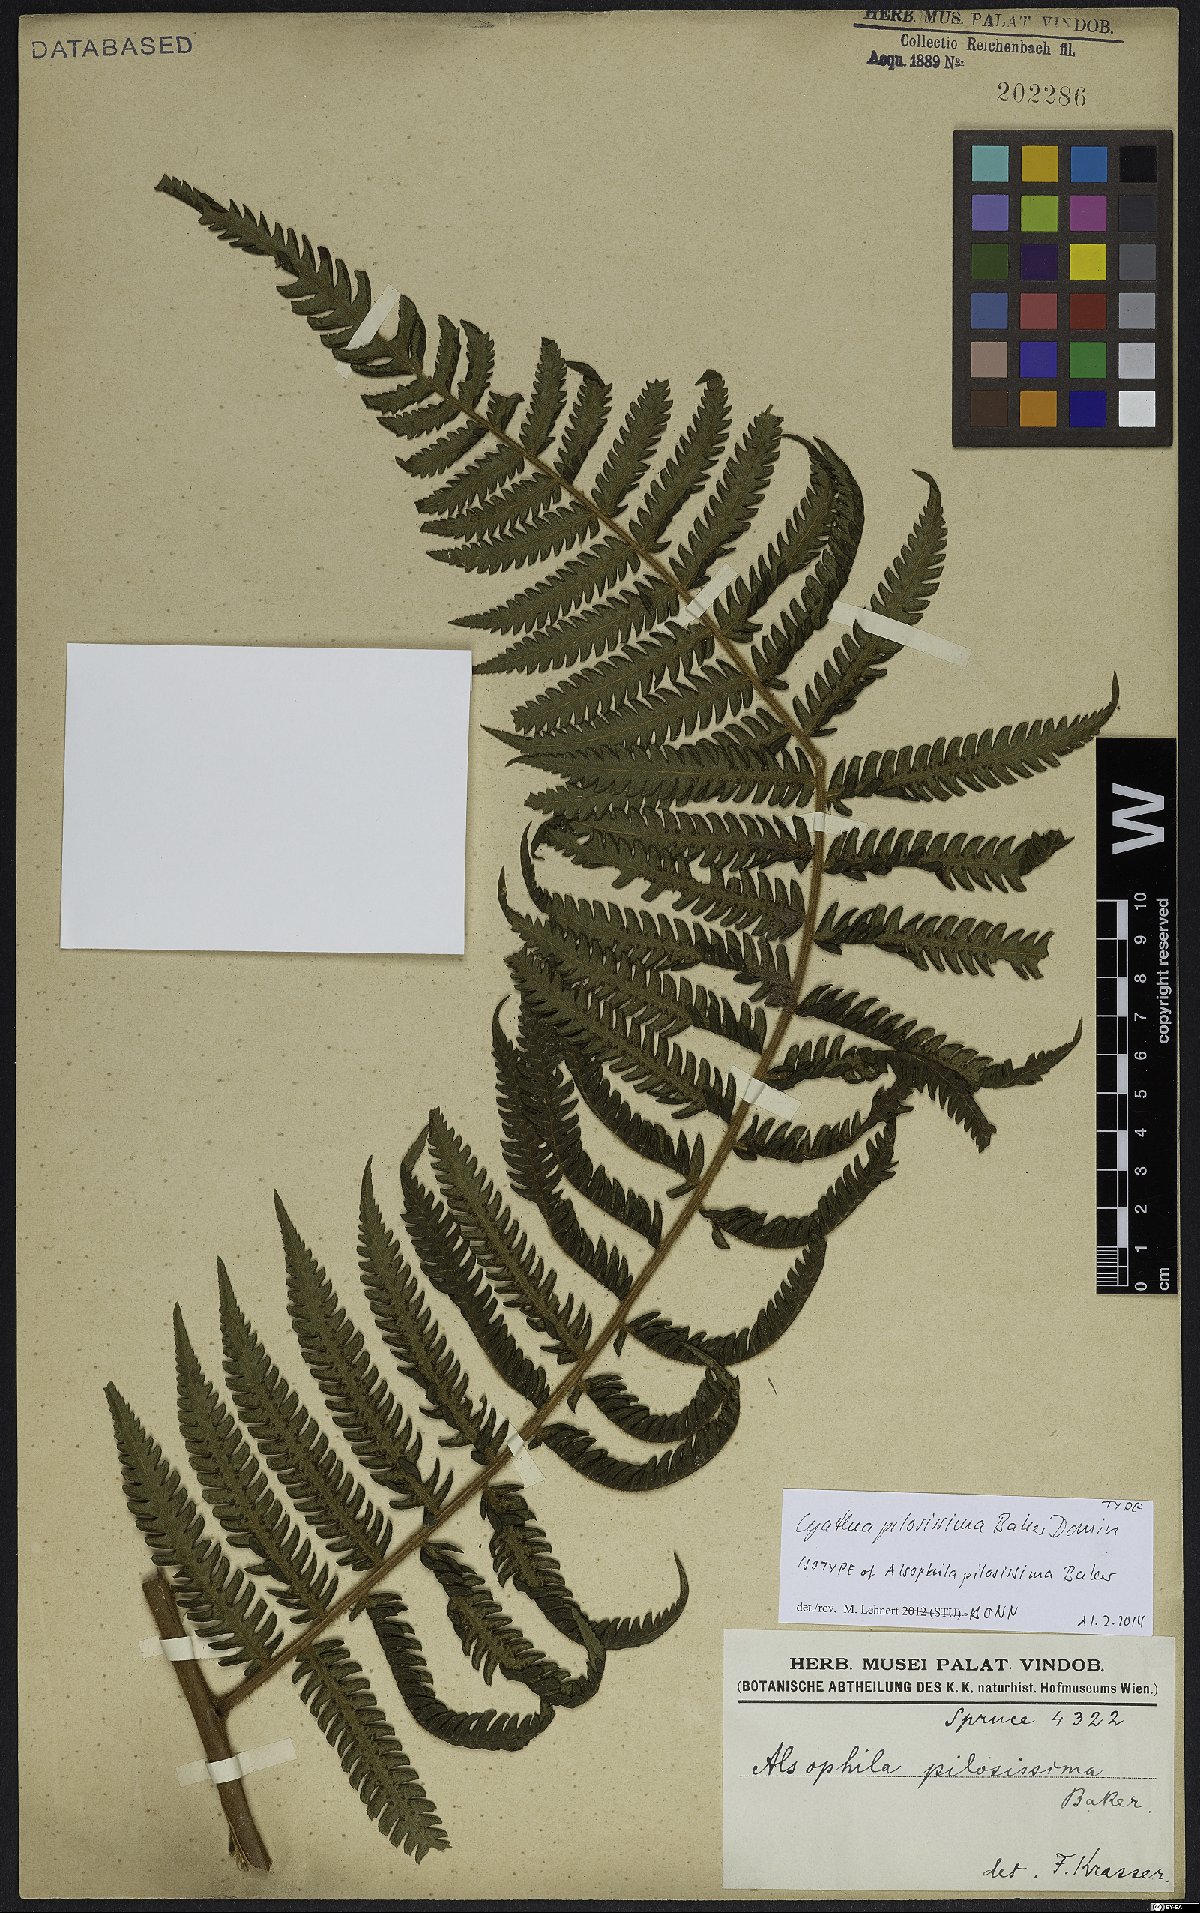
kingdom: Plantae
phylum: Tracheophyta
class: Polypodiopsida
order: Cyatheales
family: Cyatheaceae
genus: Cyathea
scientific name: Cyathea pilosissima
